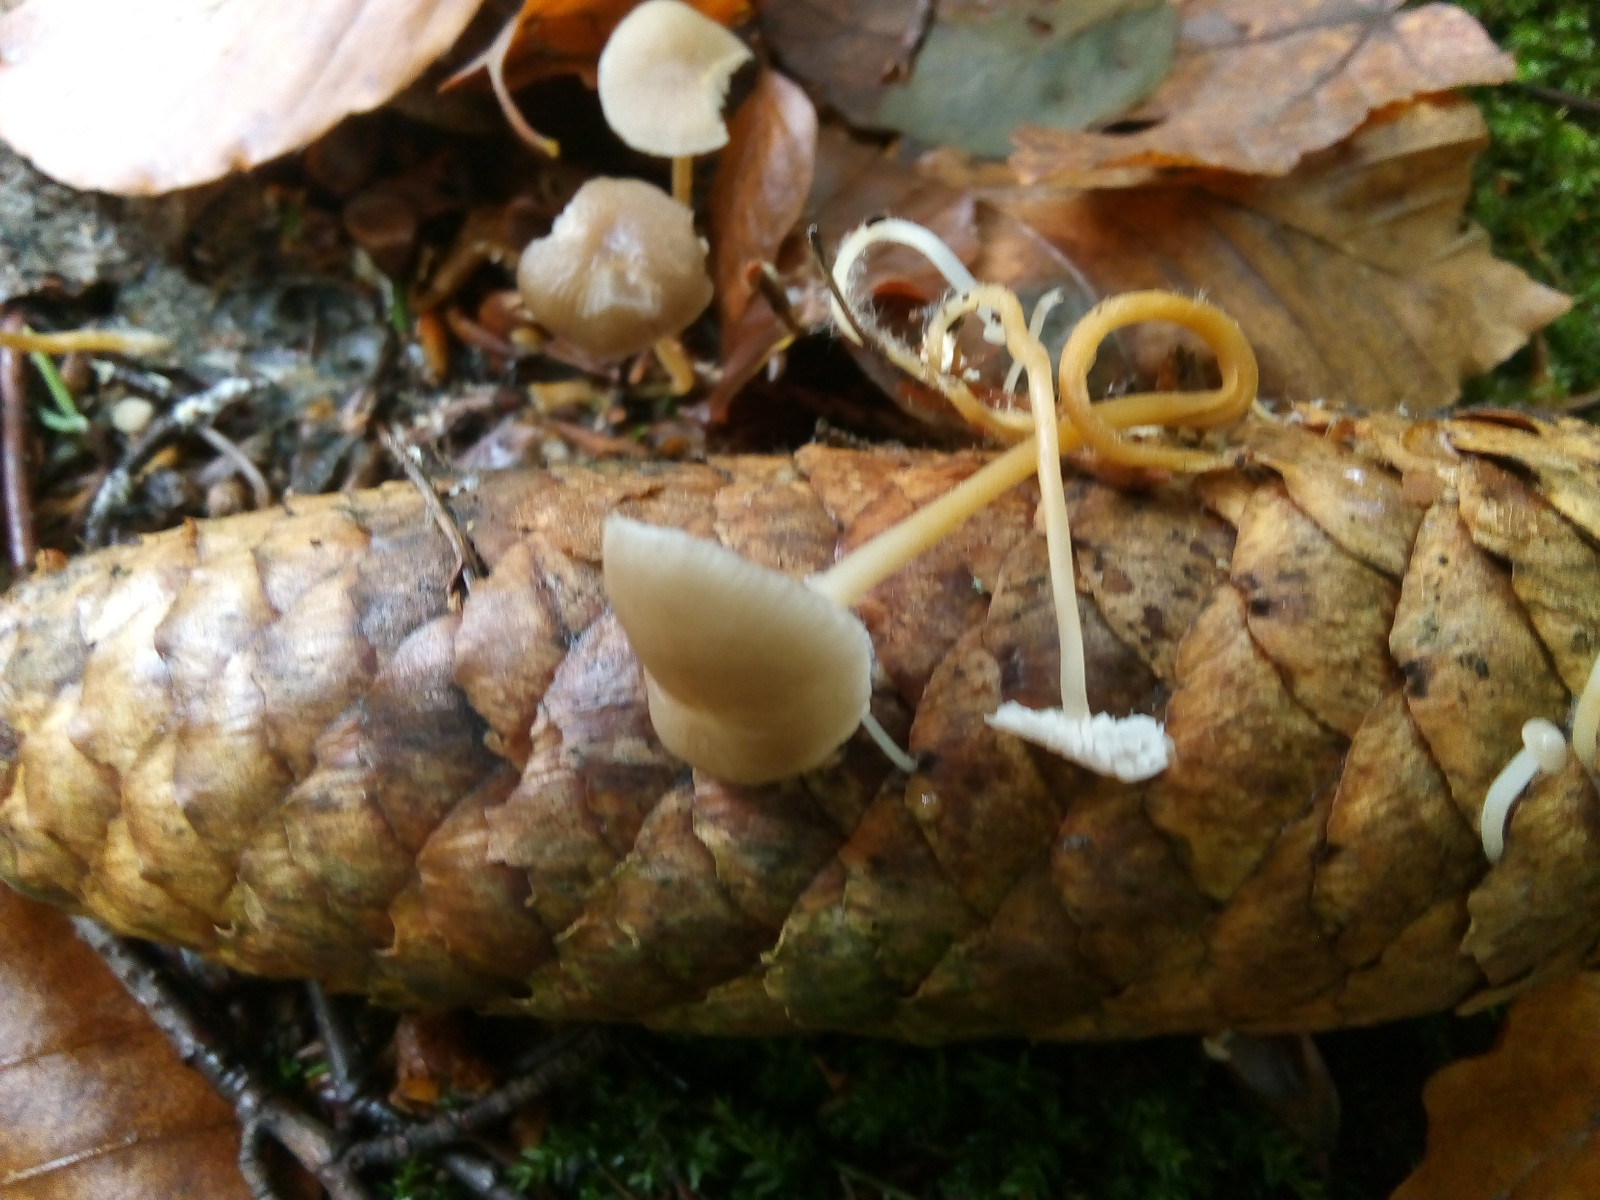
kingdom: Fungi
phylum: Basidiomycota
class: Agaricomycetes
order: Agaricales
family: Physalacriaceae
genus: Strobilurus
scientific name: Strobilurus esculentus
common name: gran-koglehat
